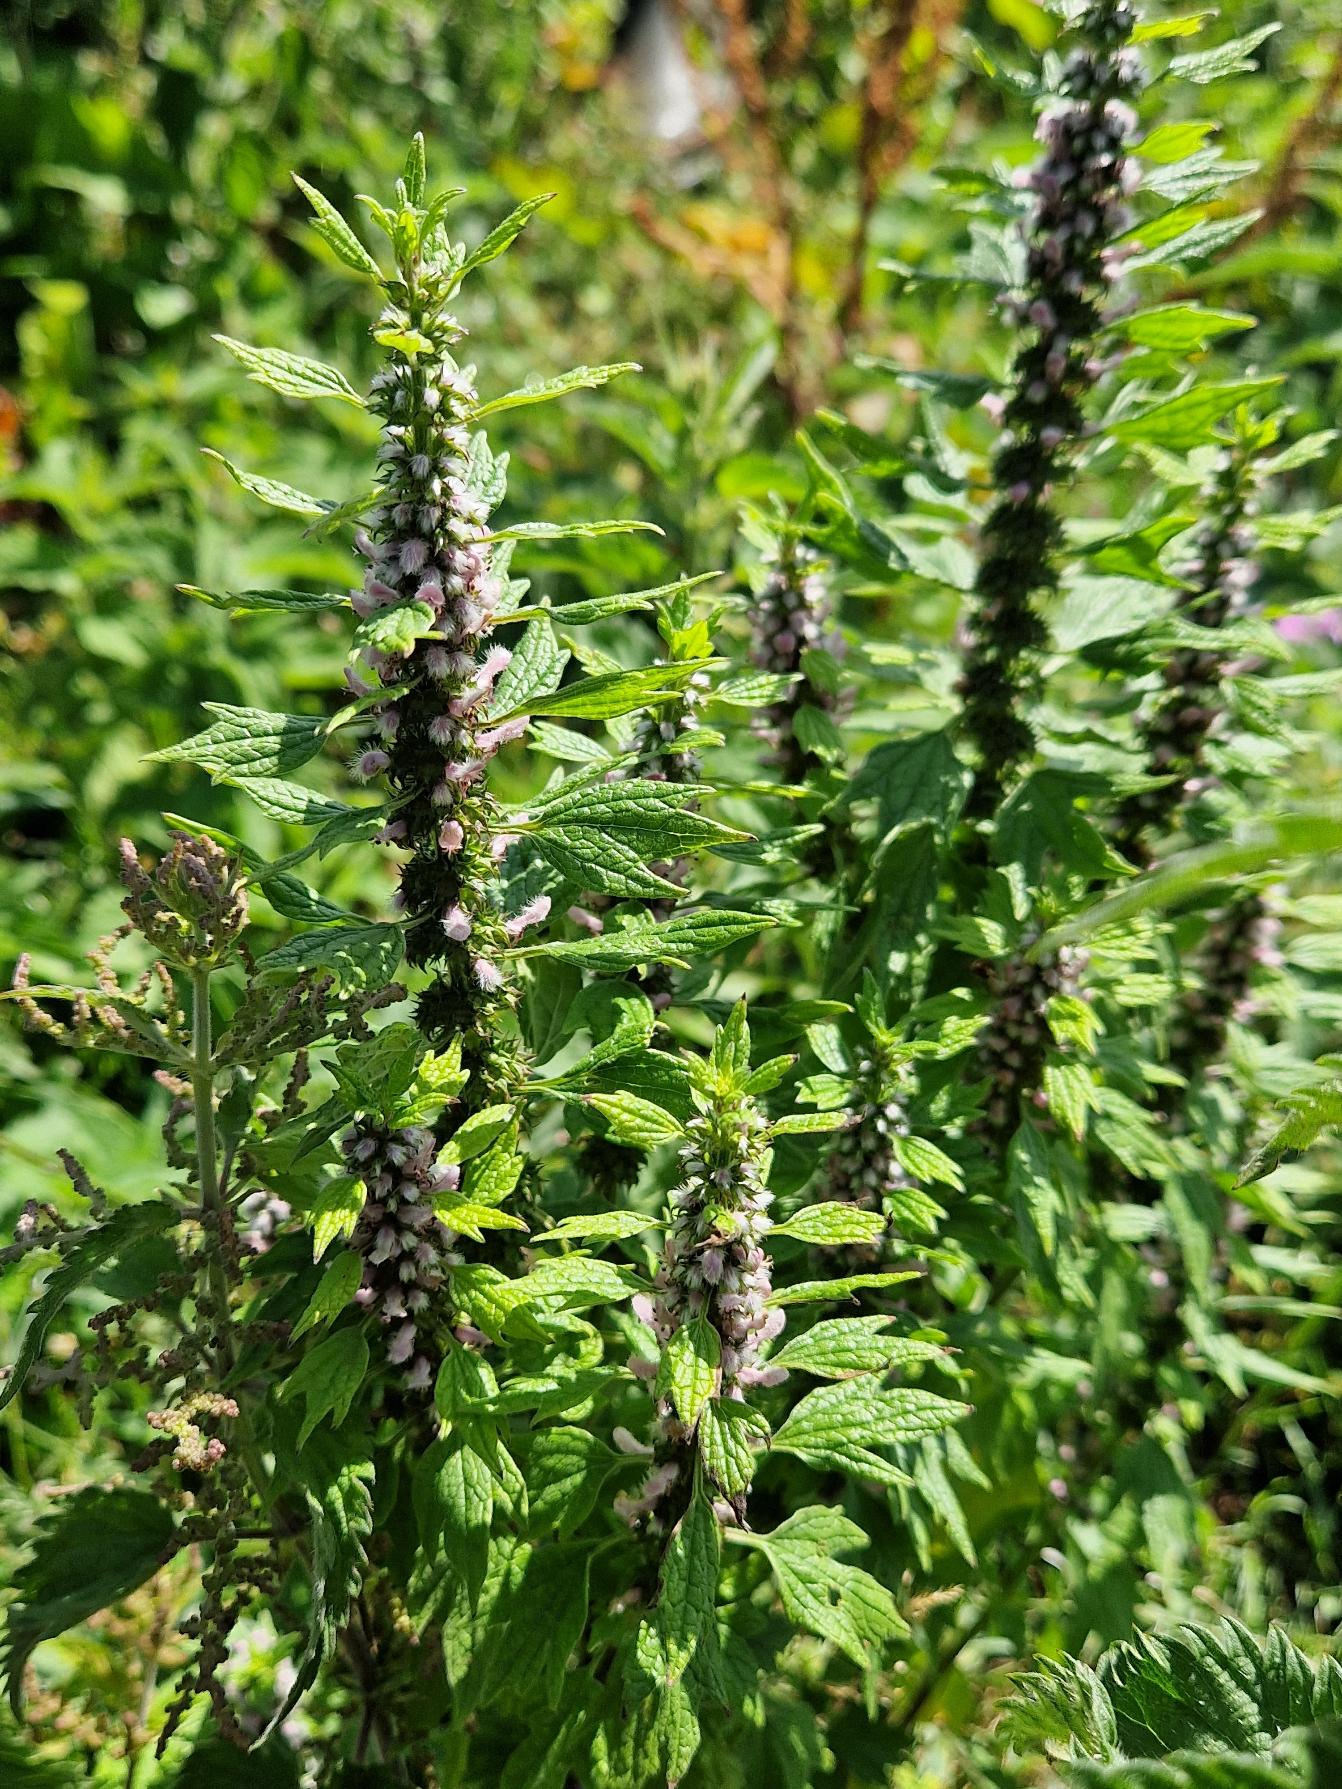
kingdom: Plantae
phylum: Tracheophyta
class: Magnoliopsida
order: Lamiales
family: Lamiaceae
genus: Leonurus
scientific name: Leonurus cardiaca
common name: Hjertespand
